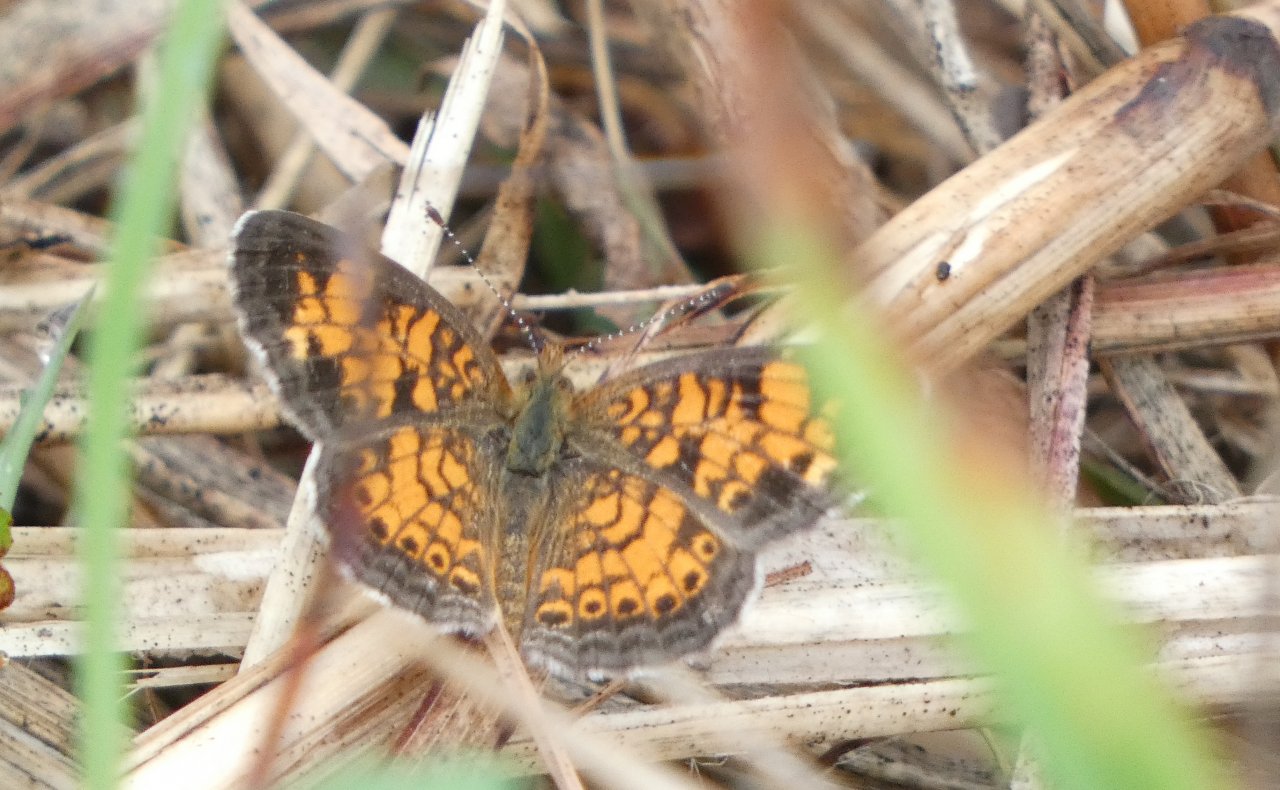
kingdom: Animalia
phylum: Arthropoda
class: Insecta
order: Lepidoptera
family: Nymphalidae
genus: Phyciodes
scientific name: Phyciodes tharos
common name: Pearl Crescent
